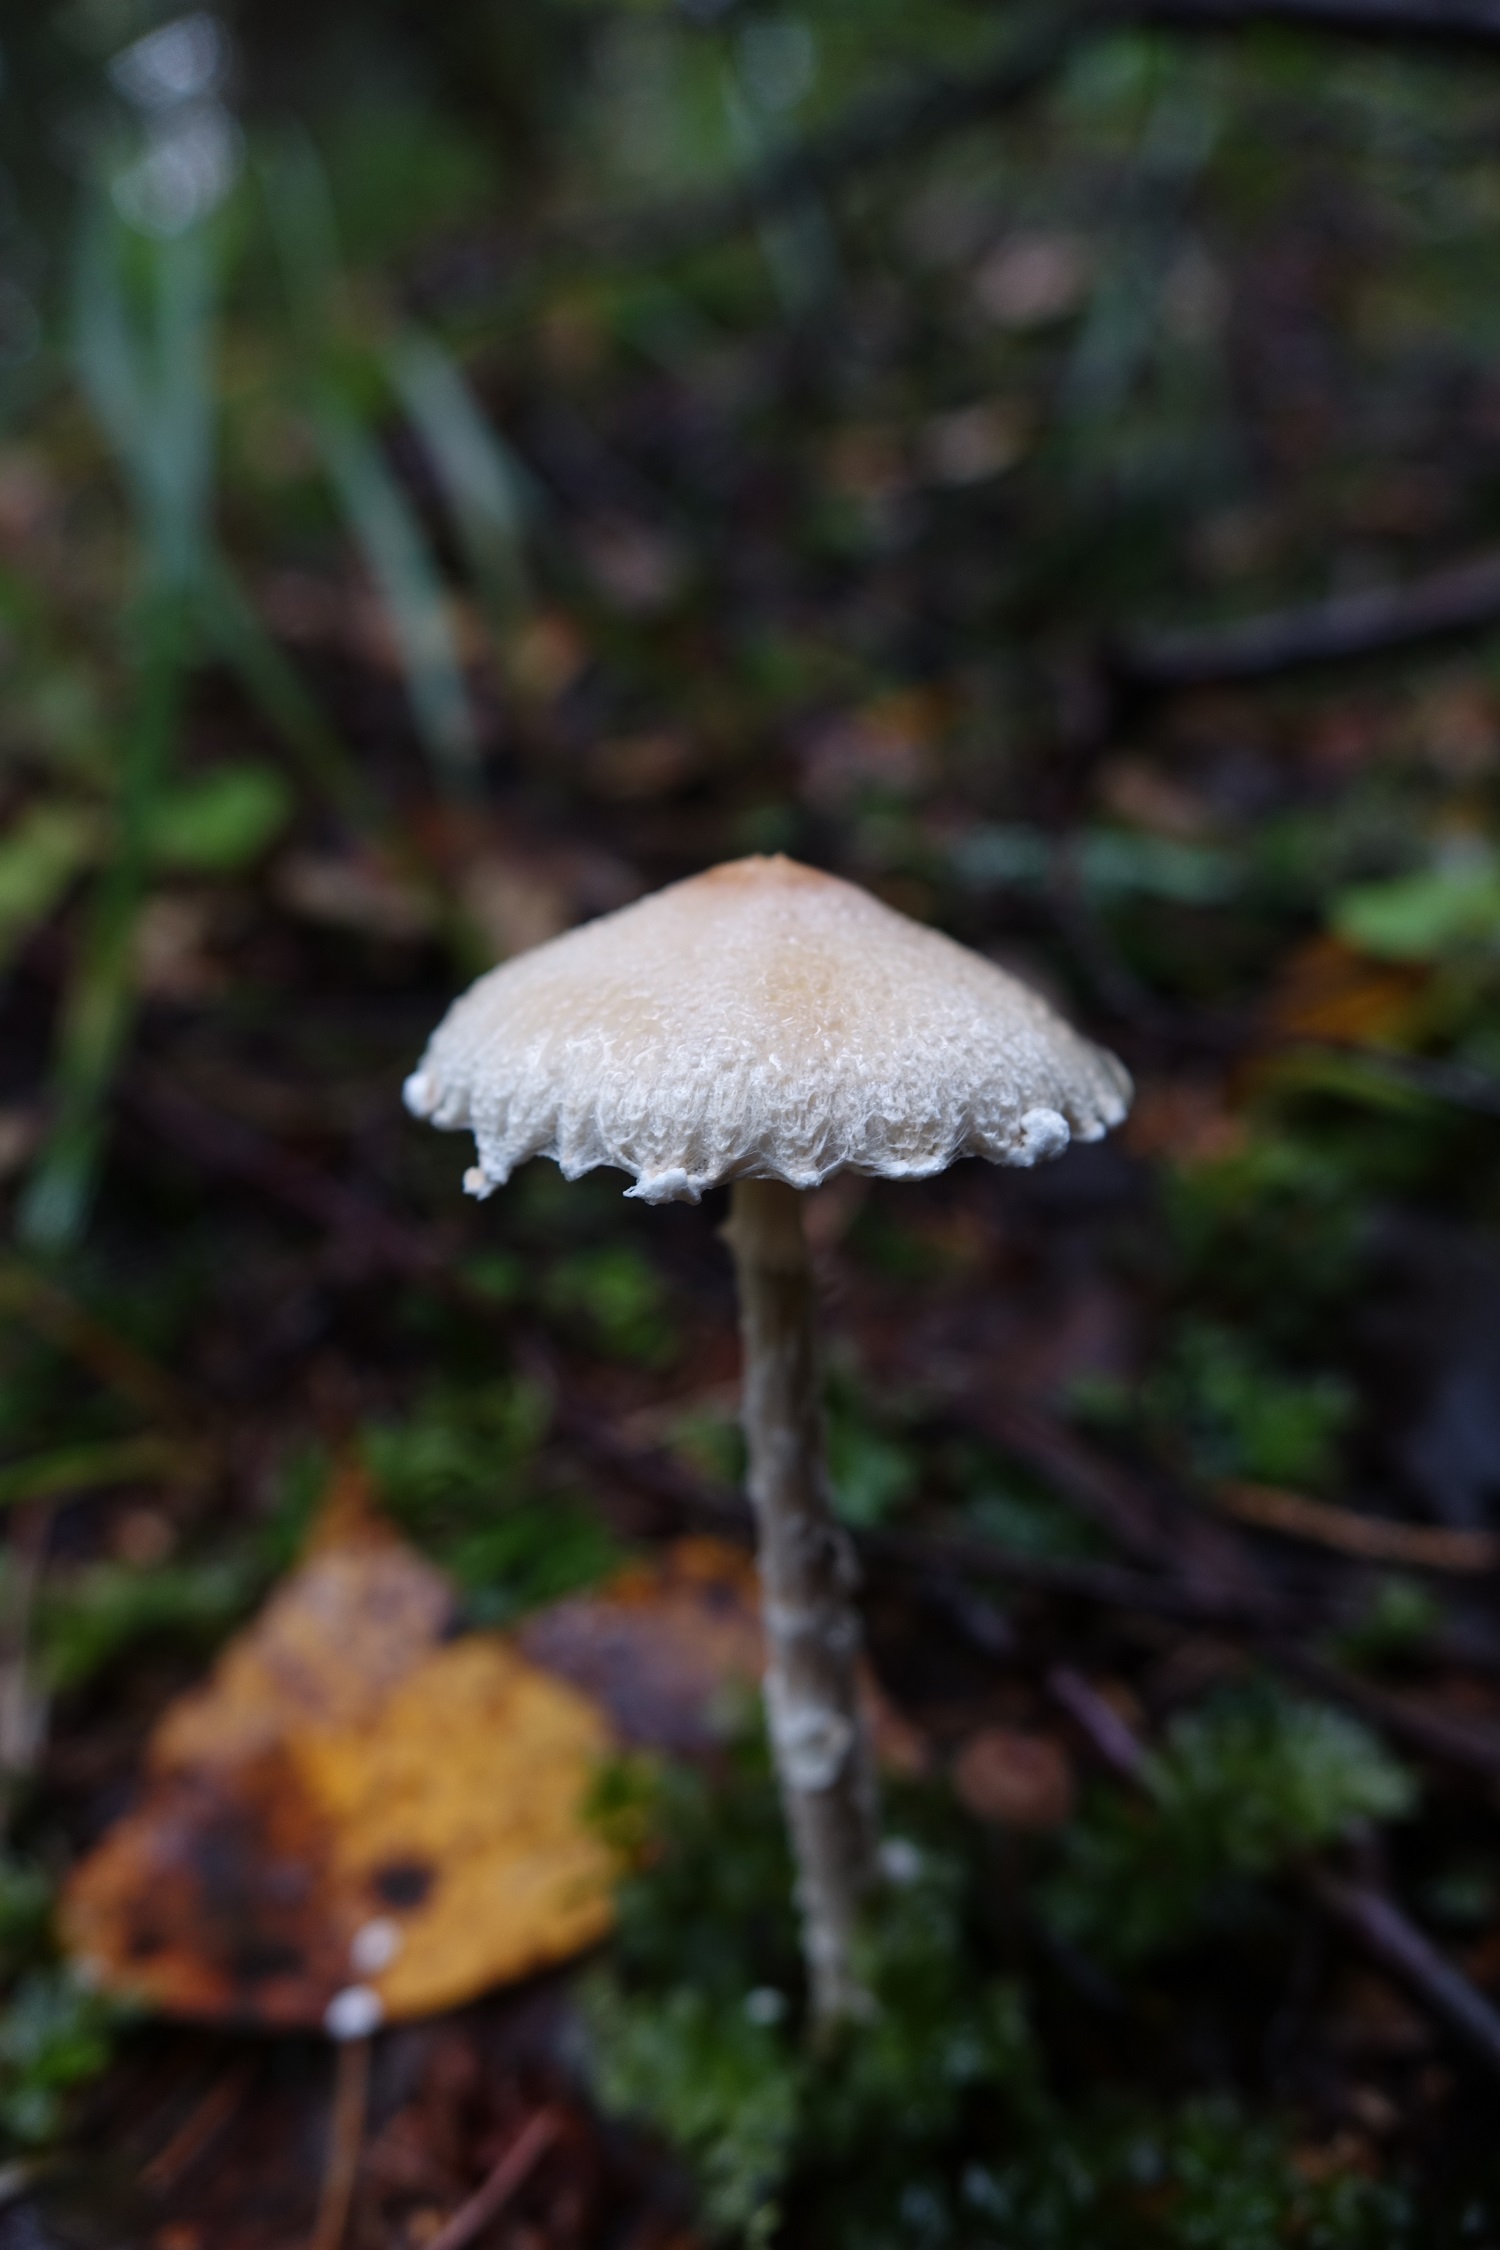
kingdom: Fungi
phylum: Basidiomycota
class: Agaricomycetes
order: Agaricales
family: Agaricaceae
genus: Lepiota
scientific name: Lepiota clypeolaria
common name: Shield dapperling
